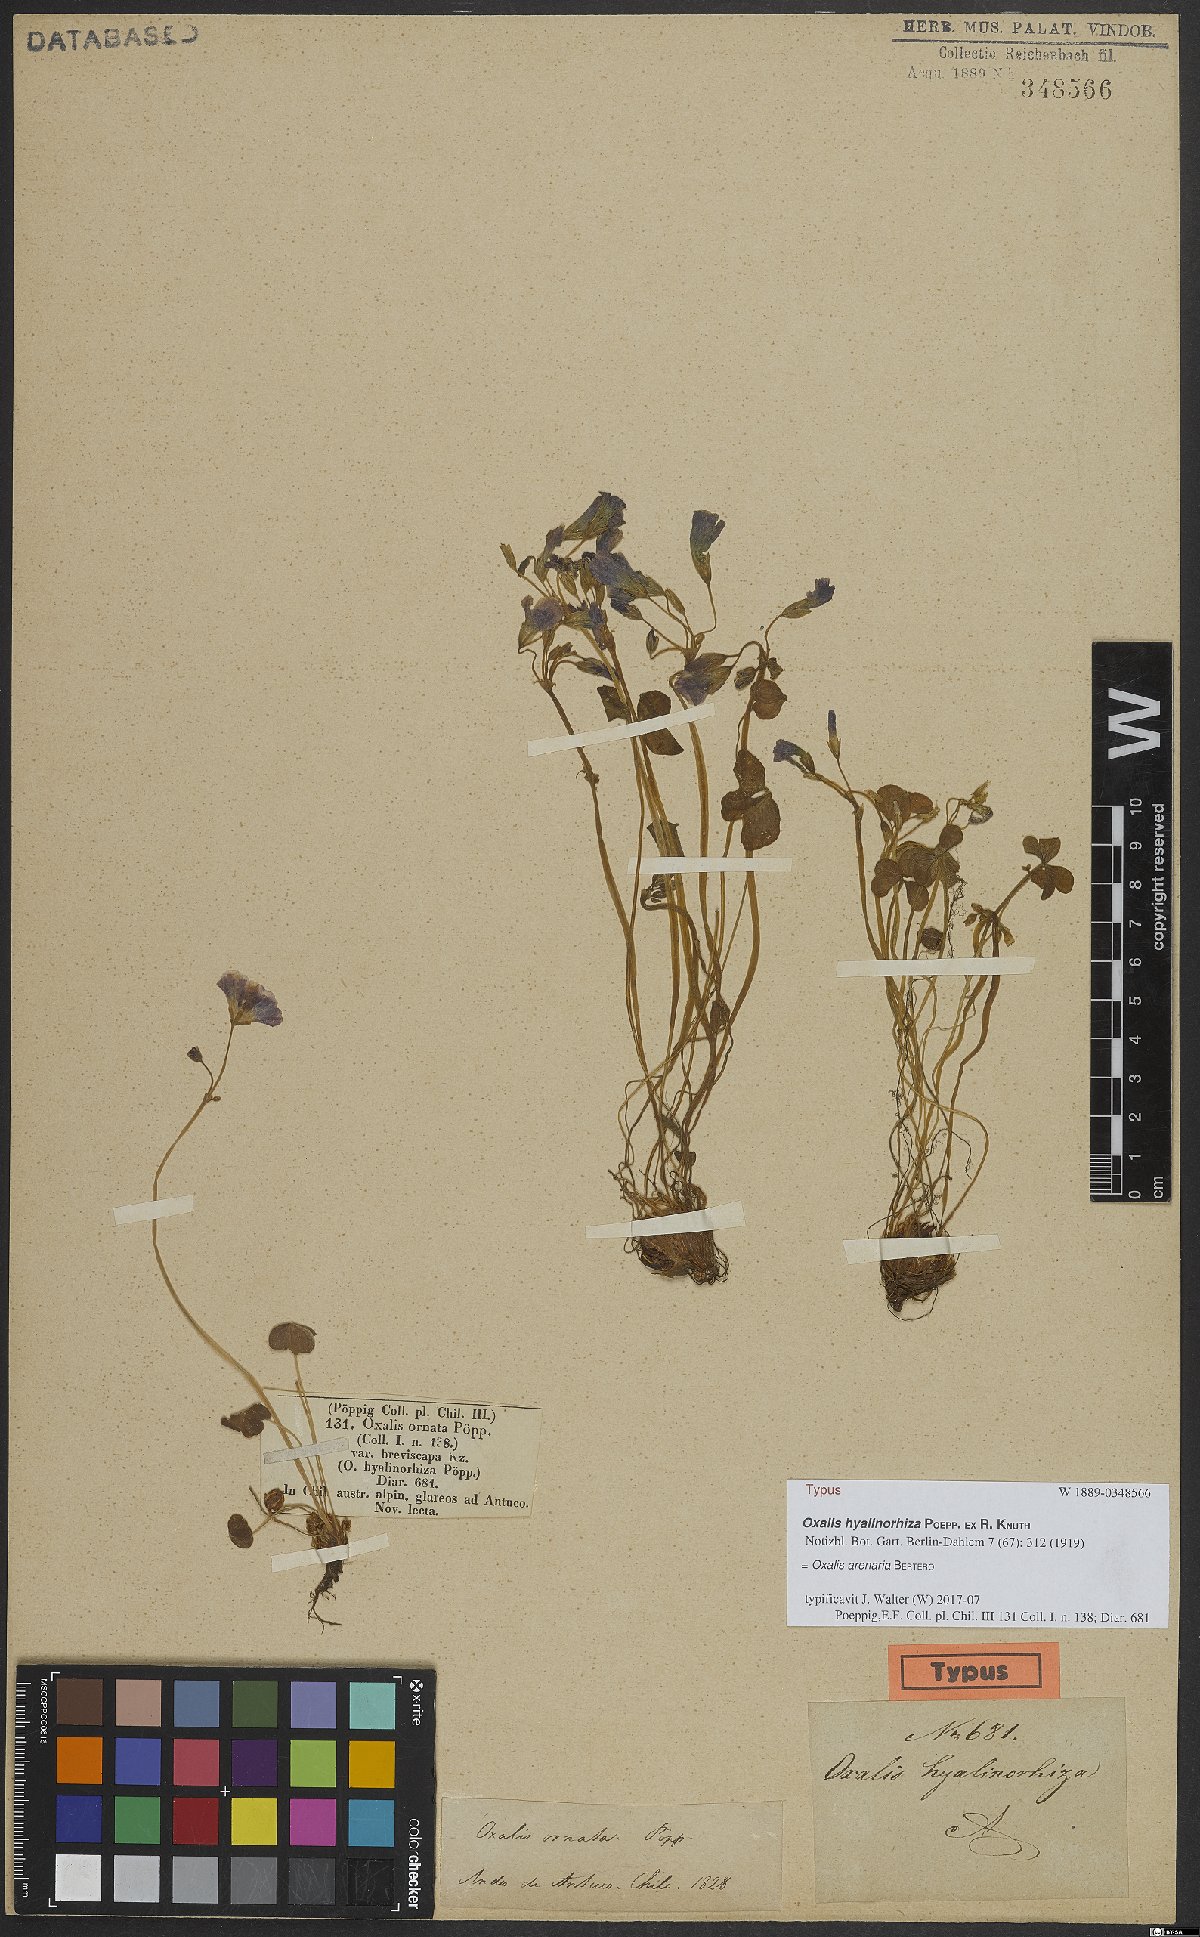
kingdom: Plantae
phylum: Tracheophyta
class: Magnoliopsida
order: Oxalidales
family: Oxalidaceae
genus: Oxalis
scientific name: Oxalis arenaria
